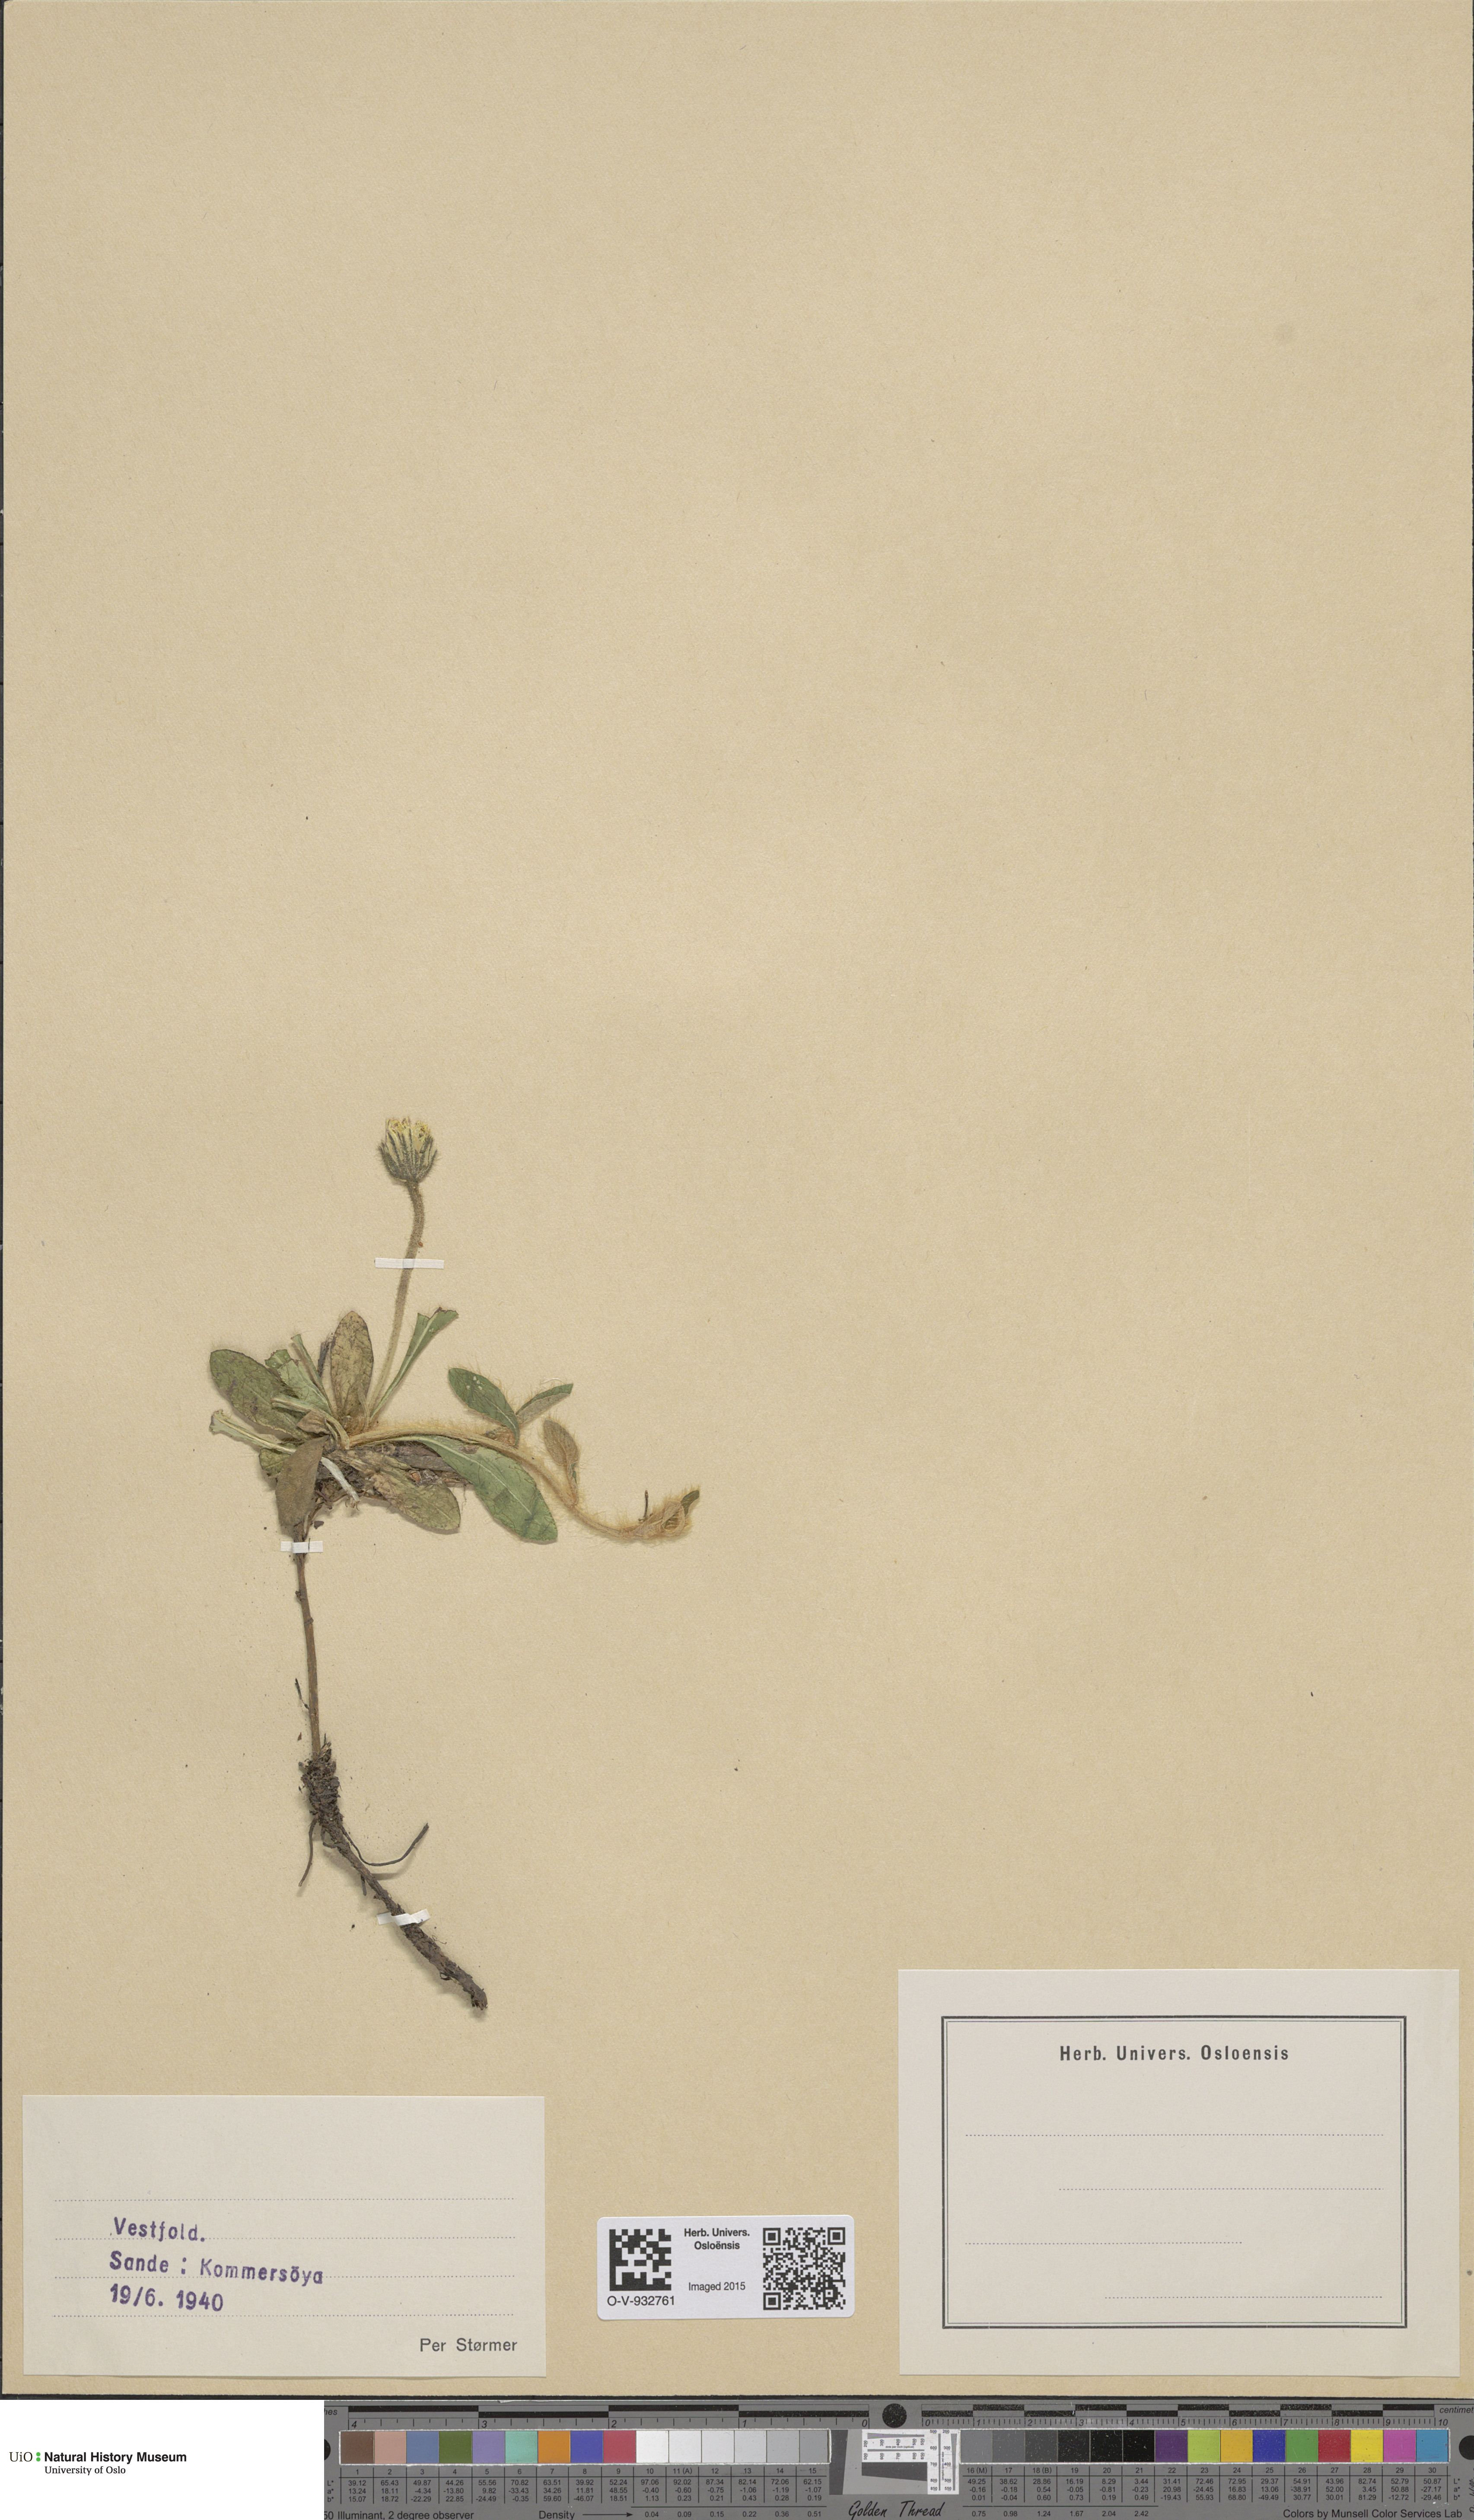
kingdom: Plantae
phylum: Tracheophyta
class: Magnoliopsida
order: Asterales
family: Asteraceae
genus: Pilosella
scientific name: Pilosella officinarum
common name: Mouse-ear hawkweed
